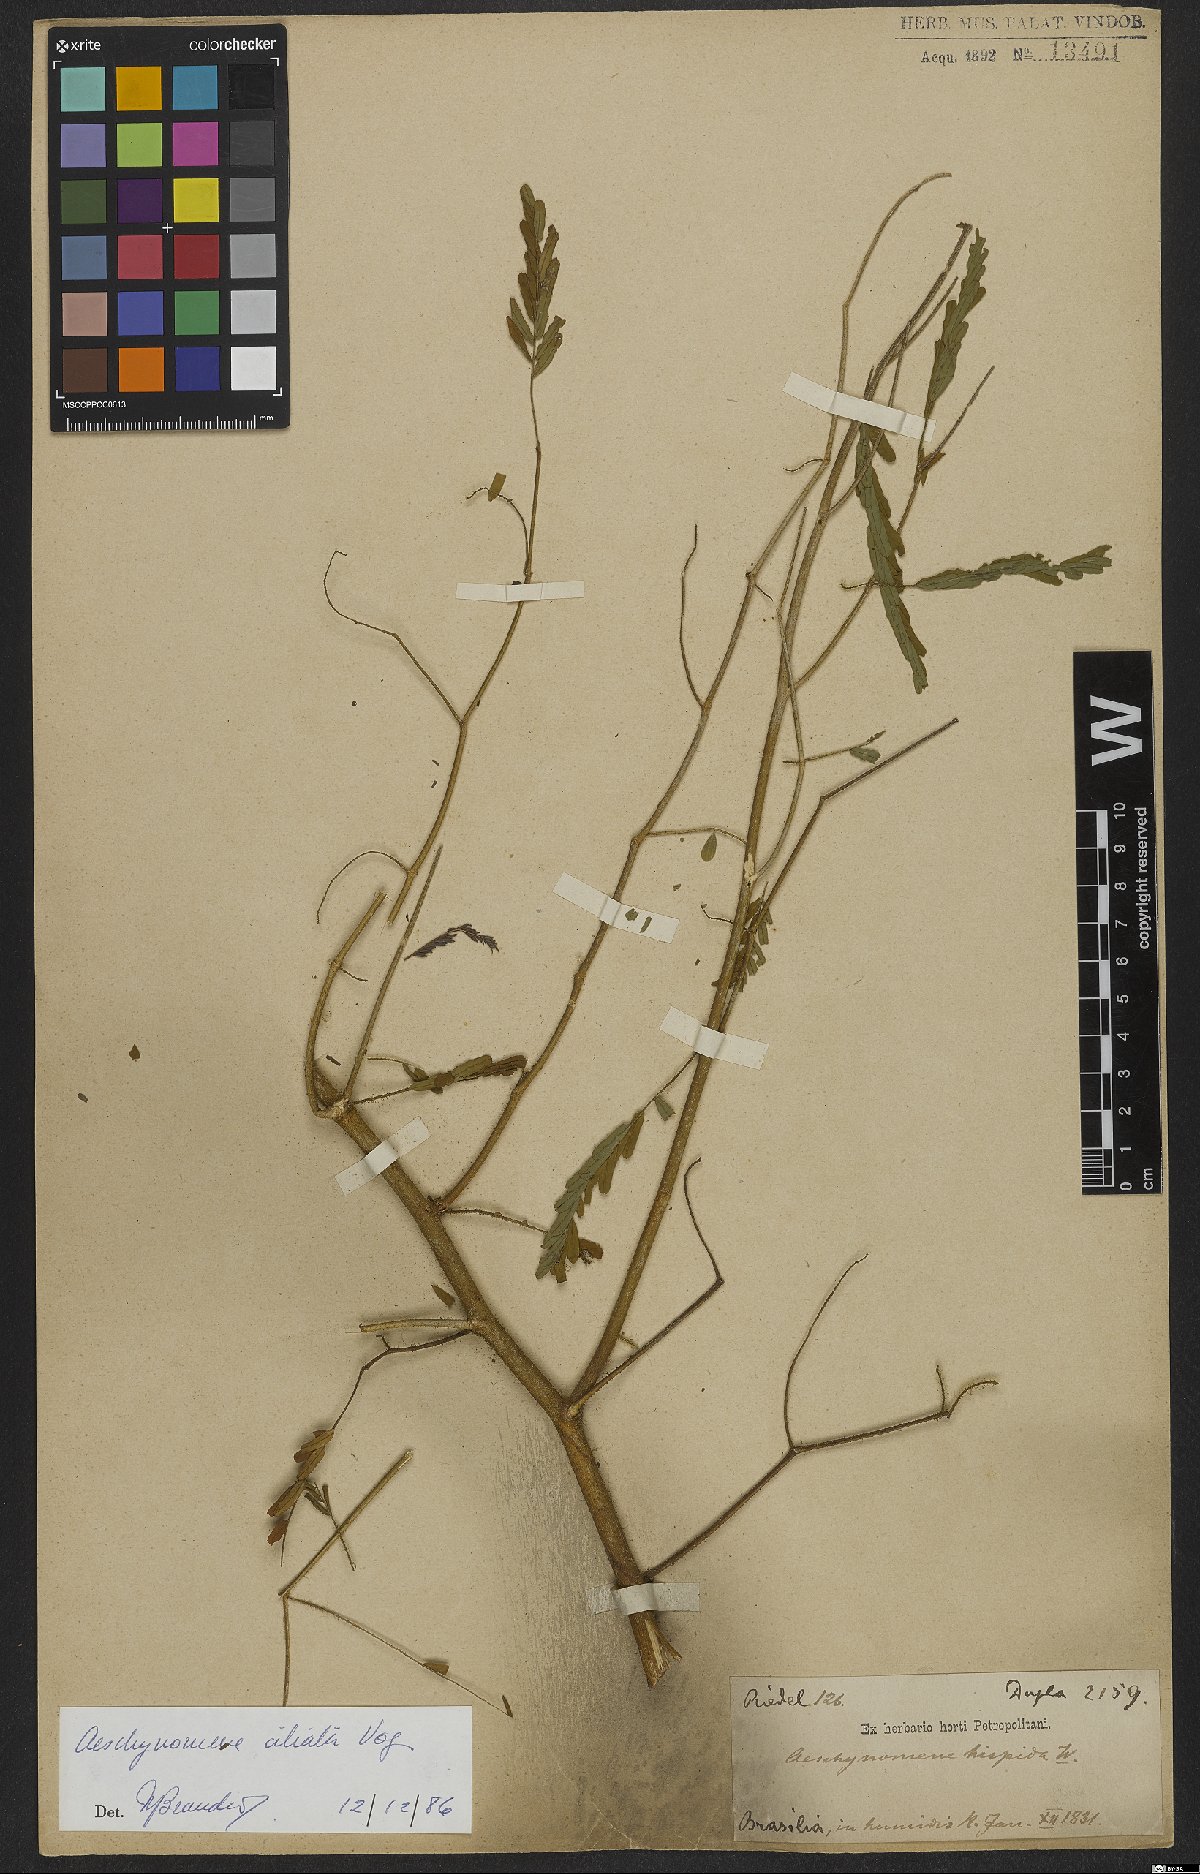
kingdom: Plantae
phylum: Tracheophyta
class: Magnoliopsida
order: Fabales
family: Fabaceae
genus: Aeschynomene
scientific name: Aeschynomene ciliata
